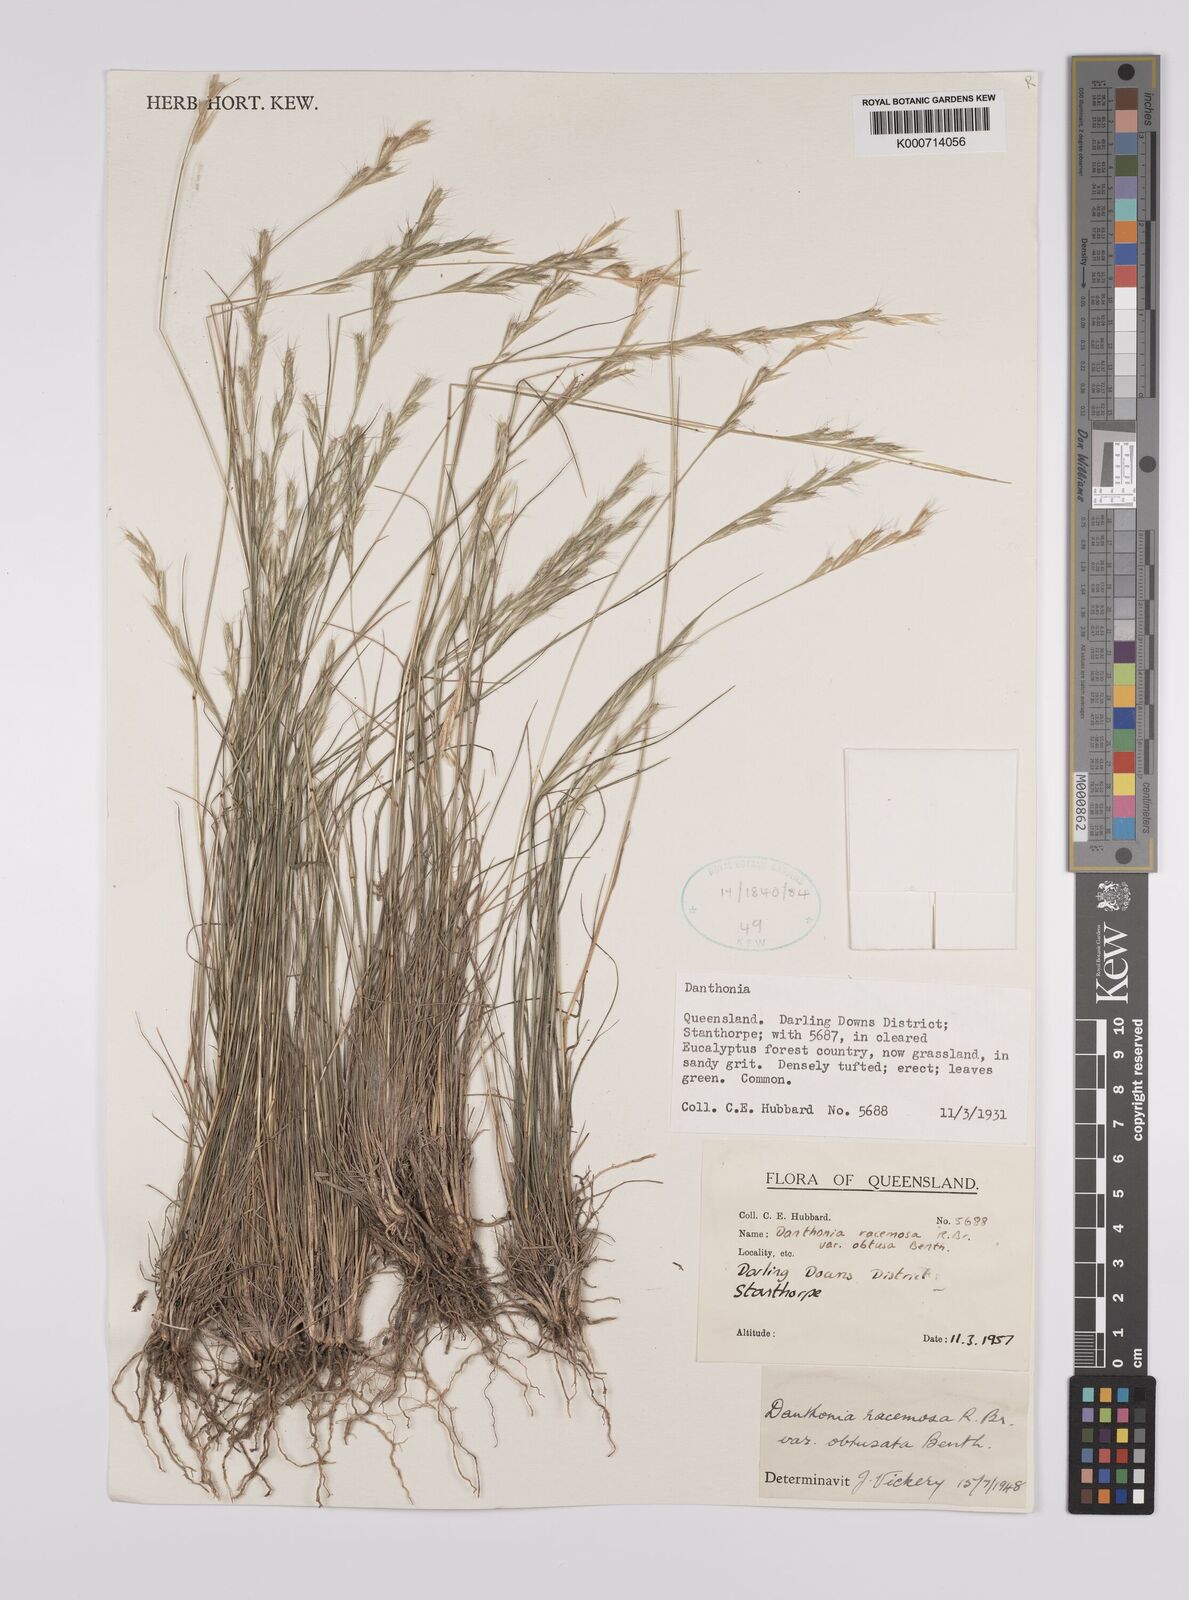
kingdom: Plantae
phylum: Tracheophyta
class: Liliopsida
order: Poales
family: Poaceae
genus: Rytidosperma
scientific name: Rytidosperma racemosum
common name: Wallaby-grass
